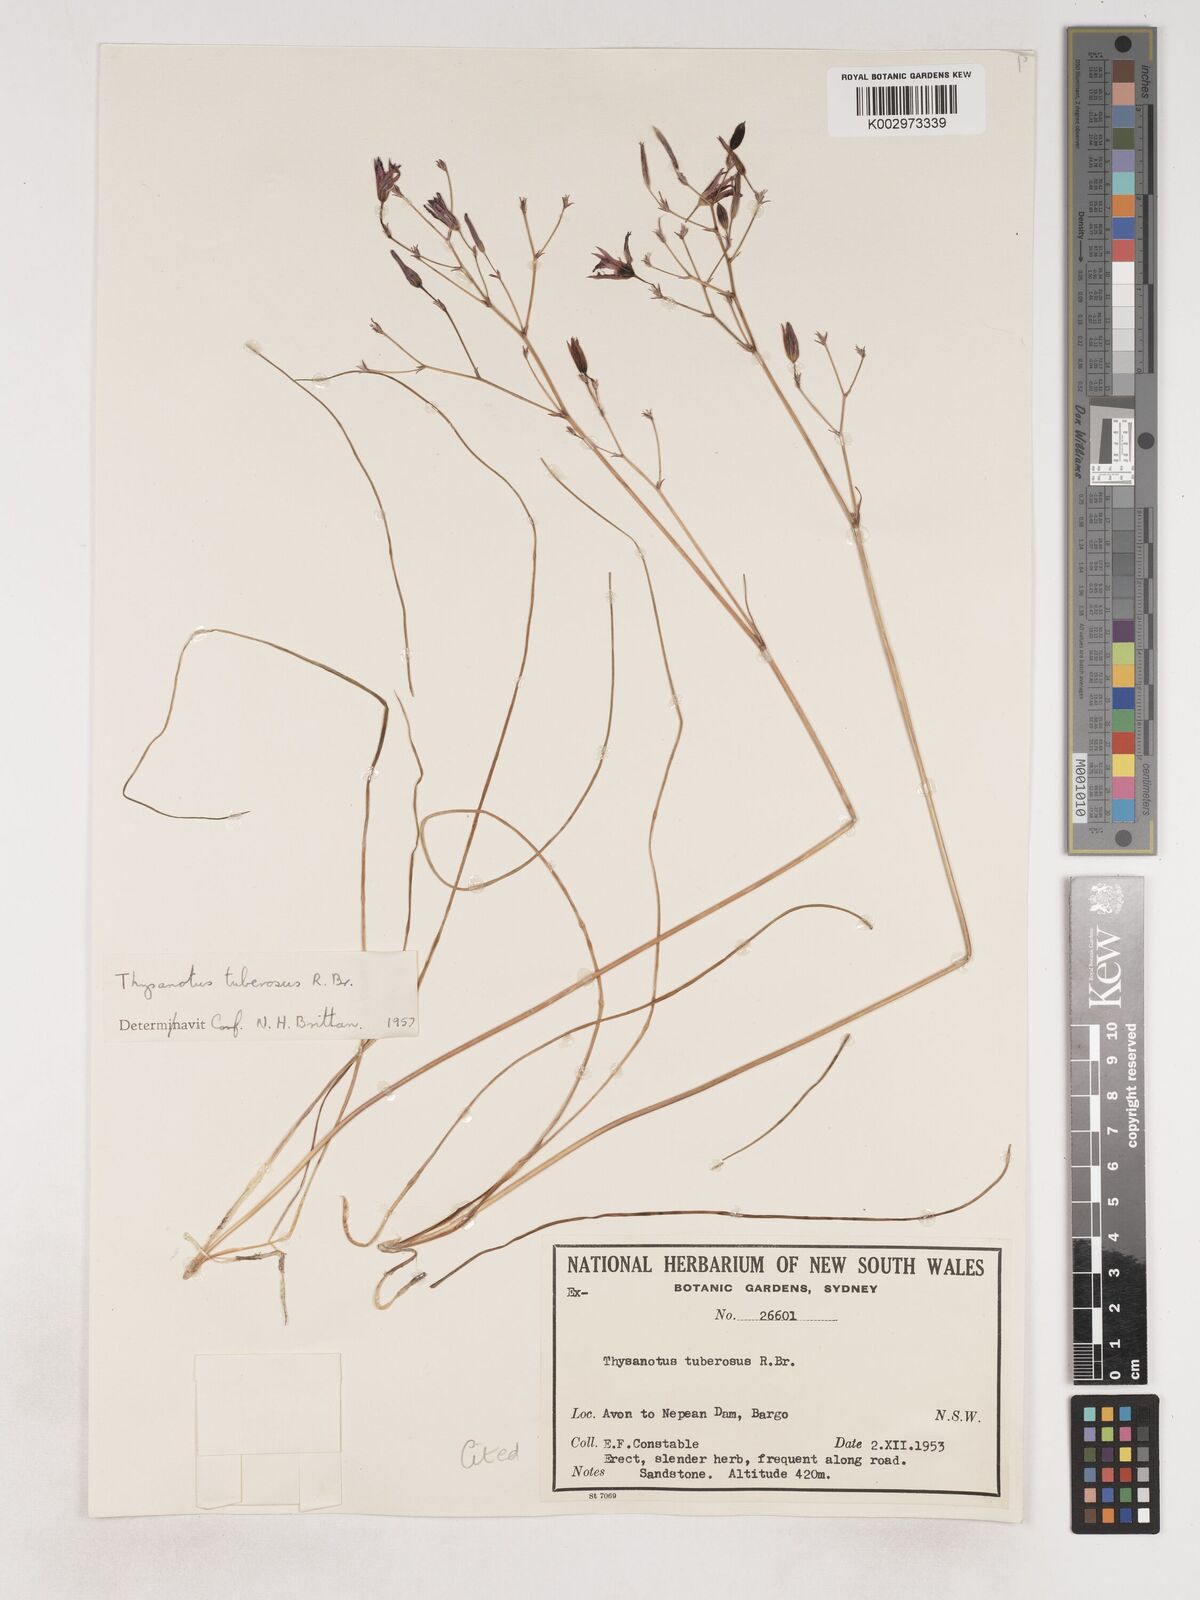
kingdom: Plantae
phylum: Tracheophyta
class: Liliopsida
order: Asparagales
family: Asparagaceae
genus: Thysanotus
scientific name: Thysanotus tuberosus
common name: Common fringed-lily
